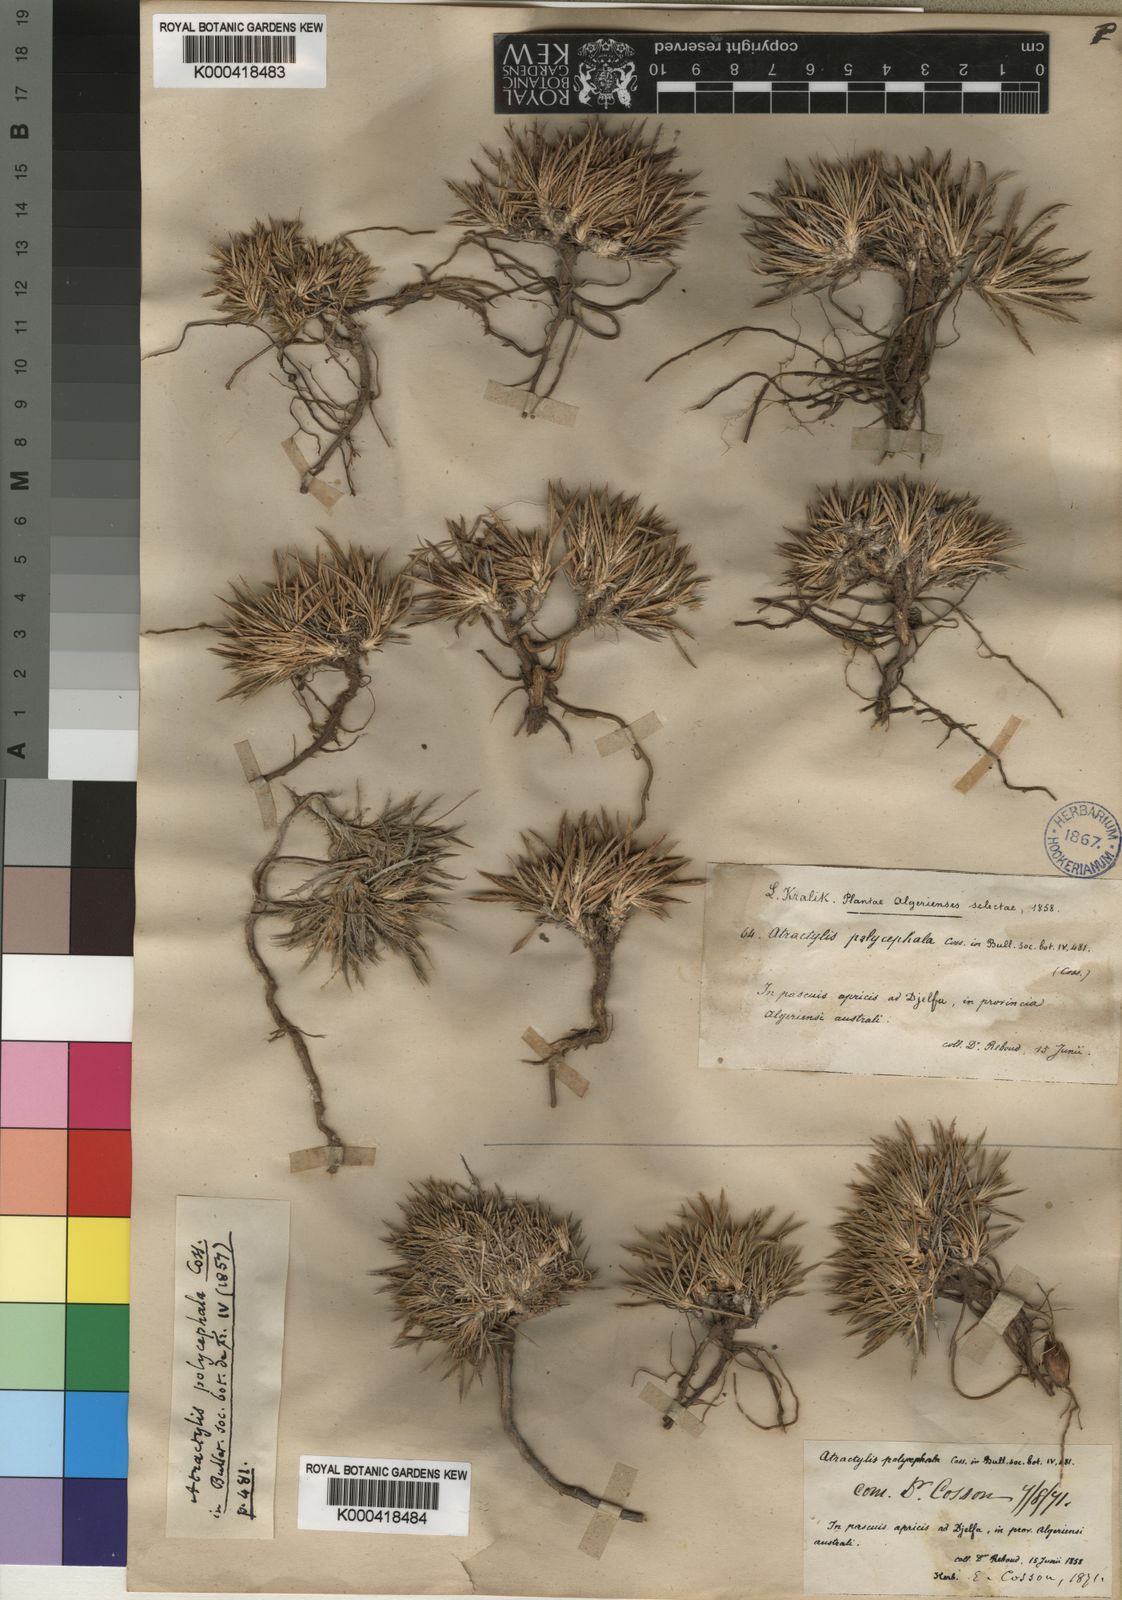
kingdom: Plantae
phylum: Tracheophyta
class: Magnoliopsida
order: Asterales
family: Asteraceae
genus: Atractylis
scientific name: Atractylis polycephala
